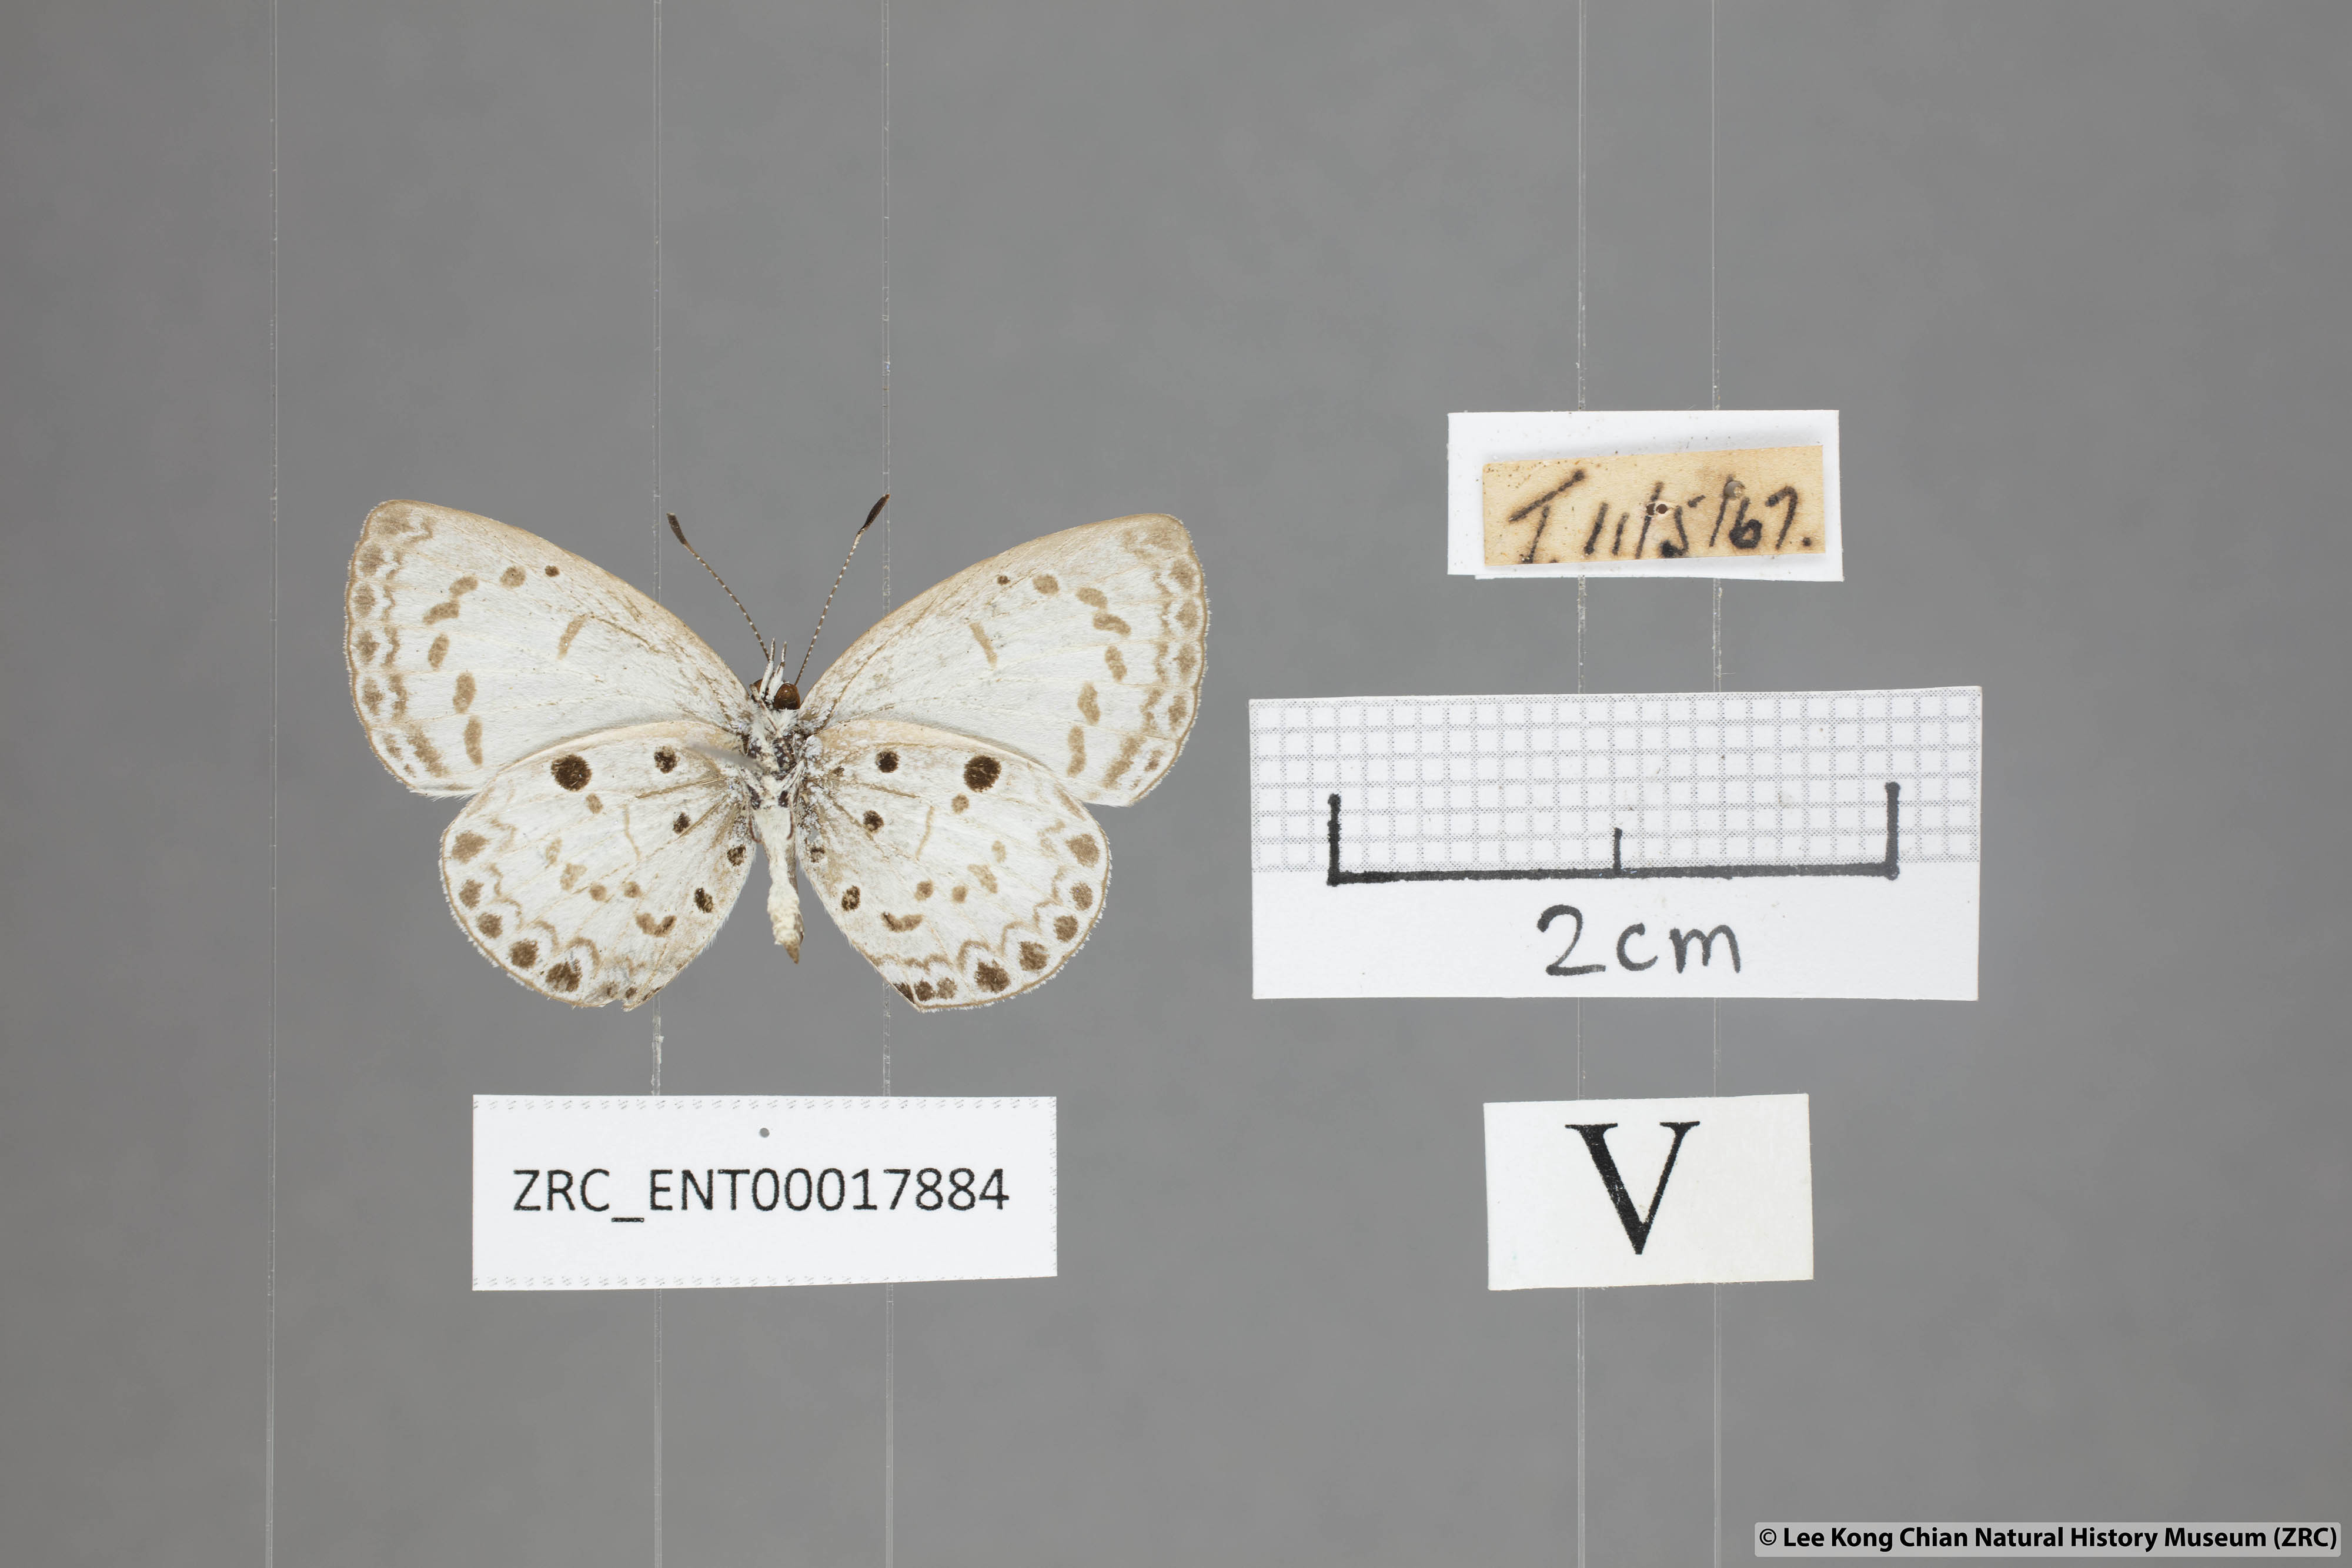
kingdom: Animalia
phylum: Arthropoda
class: Insecta
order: Lepidoptera
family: Lycaenidae
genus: Acytolepis
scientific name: Acytolepis puspa
